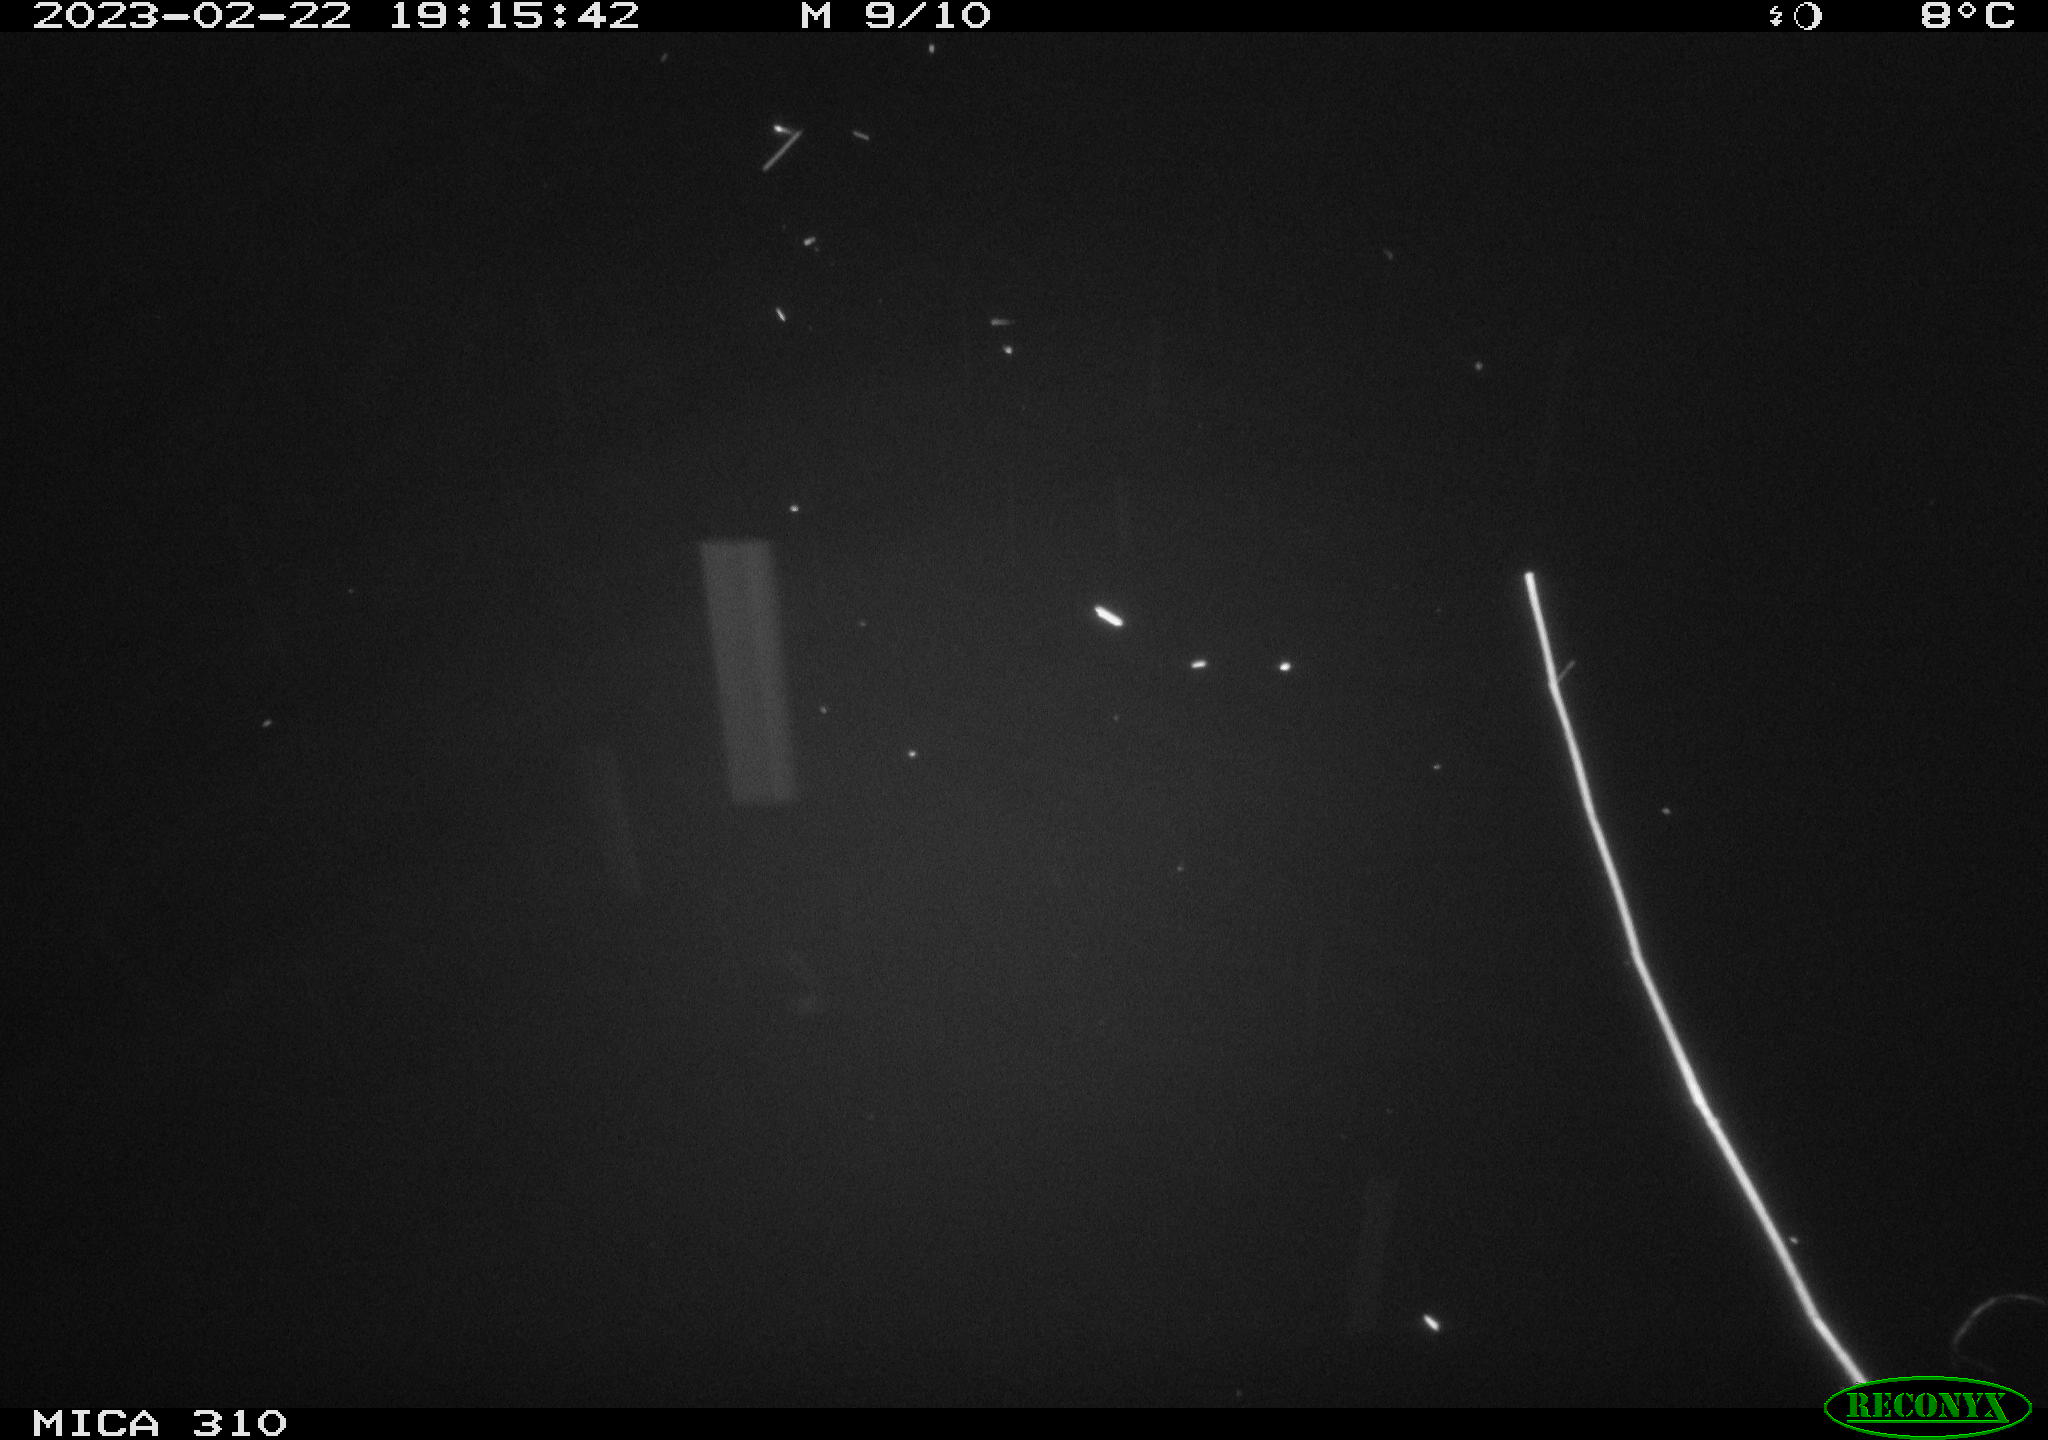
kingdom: Animalia
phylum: Chordata
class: Mammalia
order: Rodentia
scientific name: Rodentia
